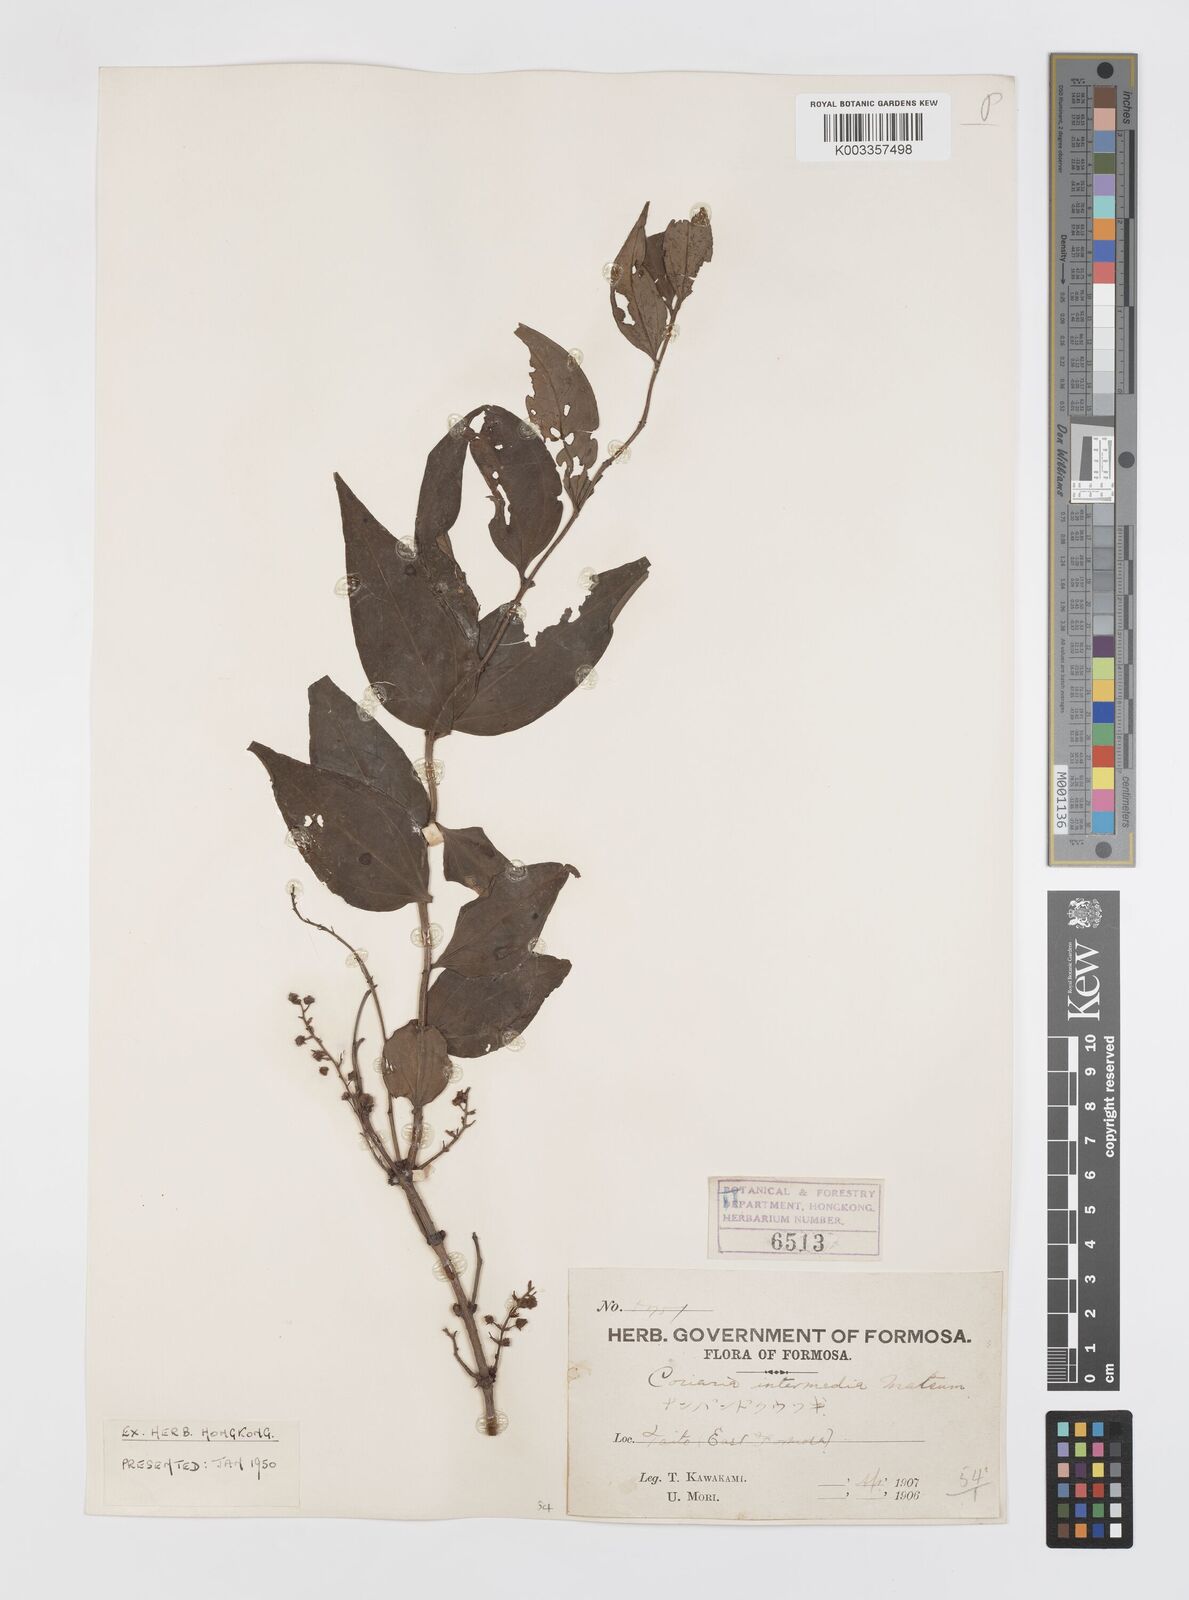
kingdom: Plantae
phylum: Tracheophyta
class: Magnoliopsida
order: Cucurbitales
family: Coriariaceae
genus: Coriaria
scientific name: Coriaria japonica
